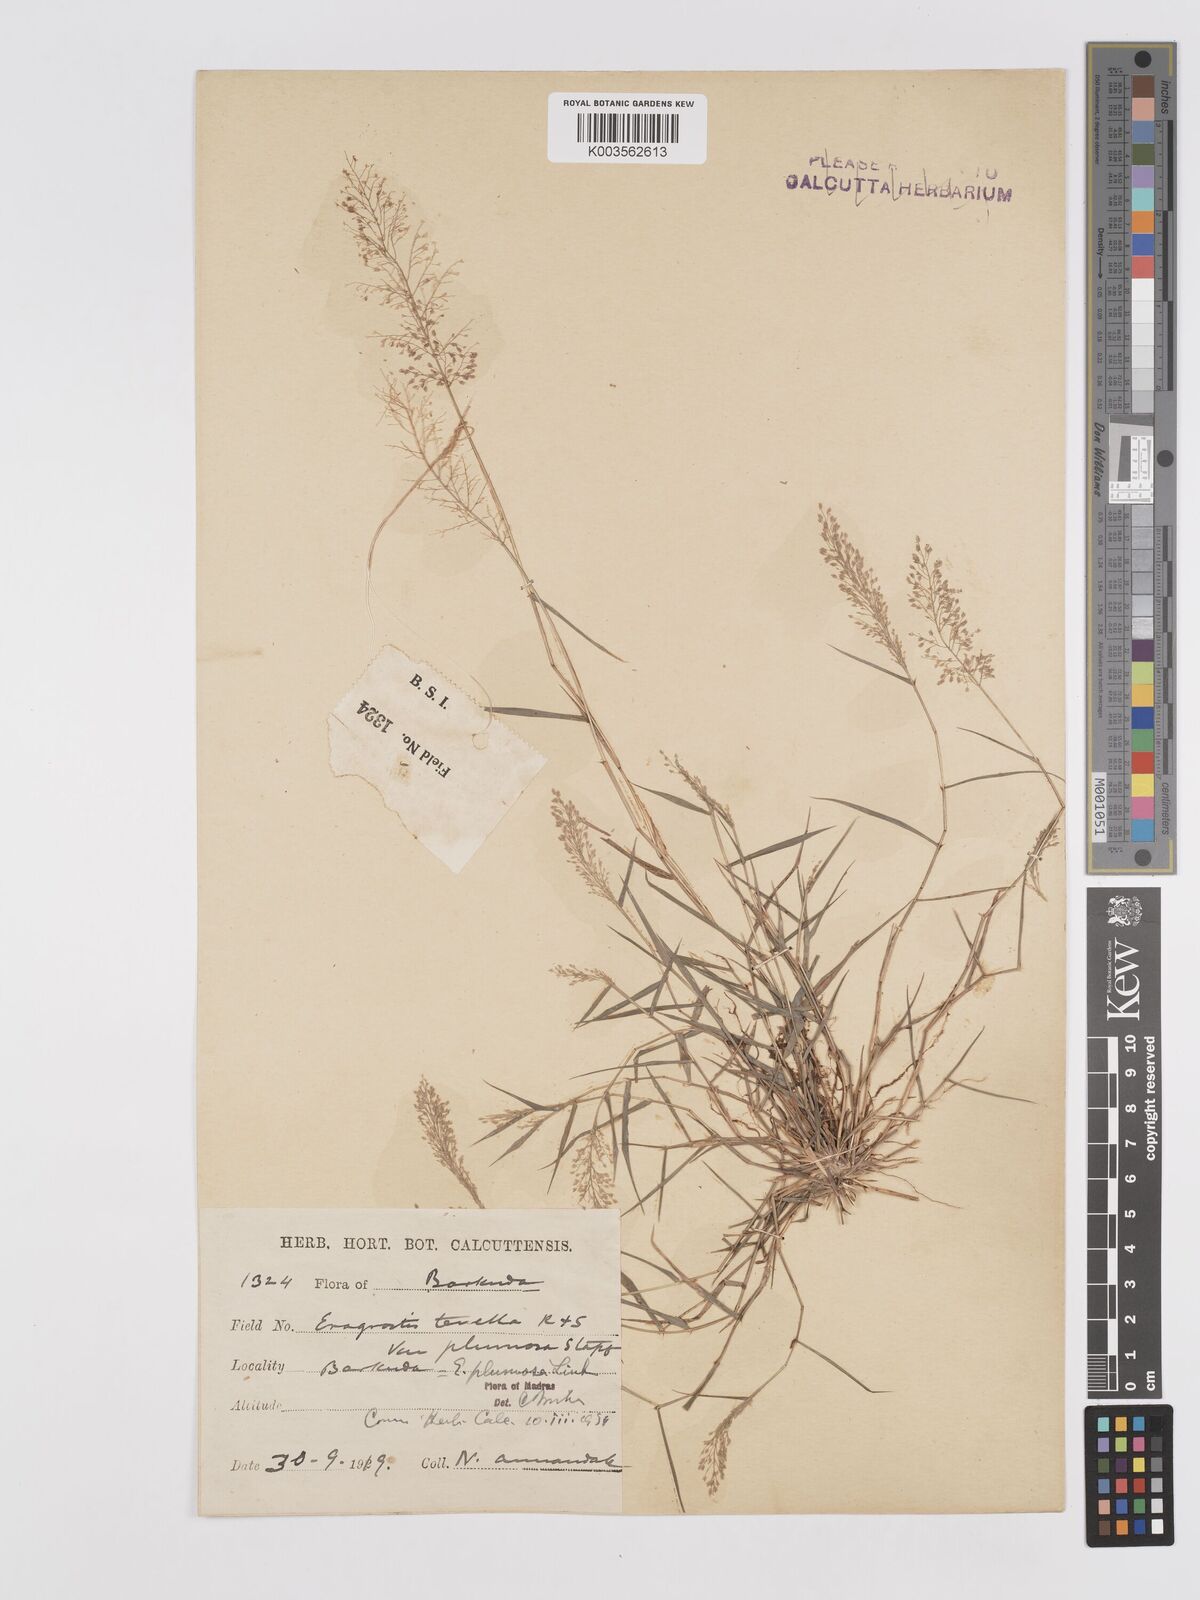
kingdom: Plantae
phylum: Tracheophyta
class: Liliopsida
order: Poales
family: Poaceae
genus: Eragrostis
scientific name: Eragrostis tenella
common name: Japanese lovegrass
